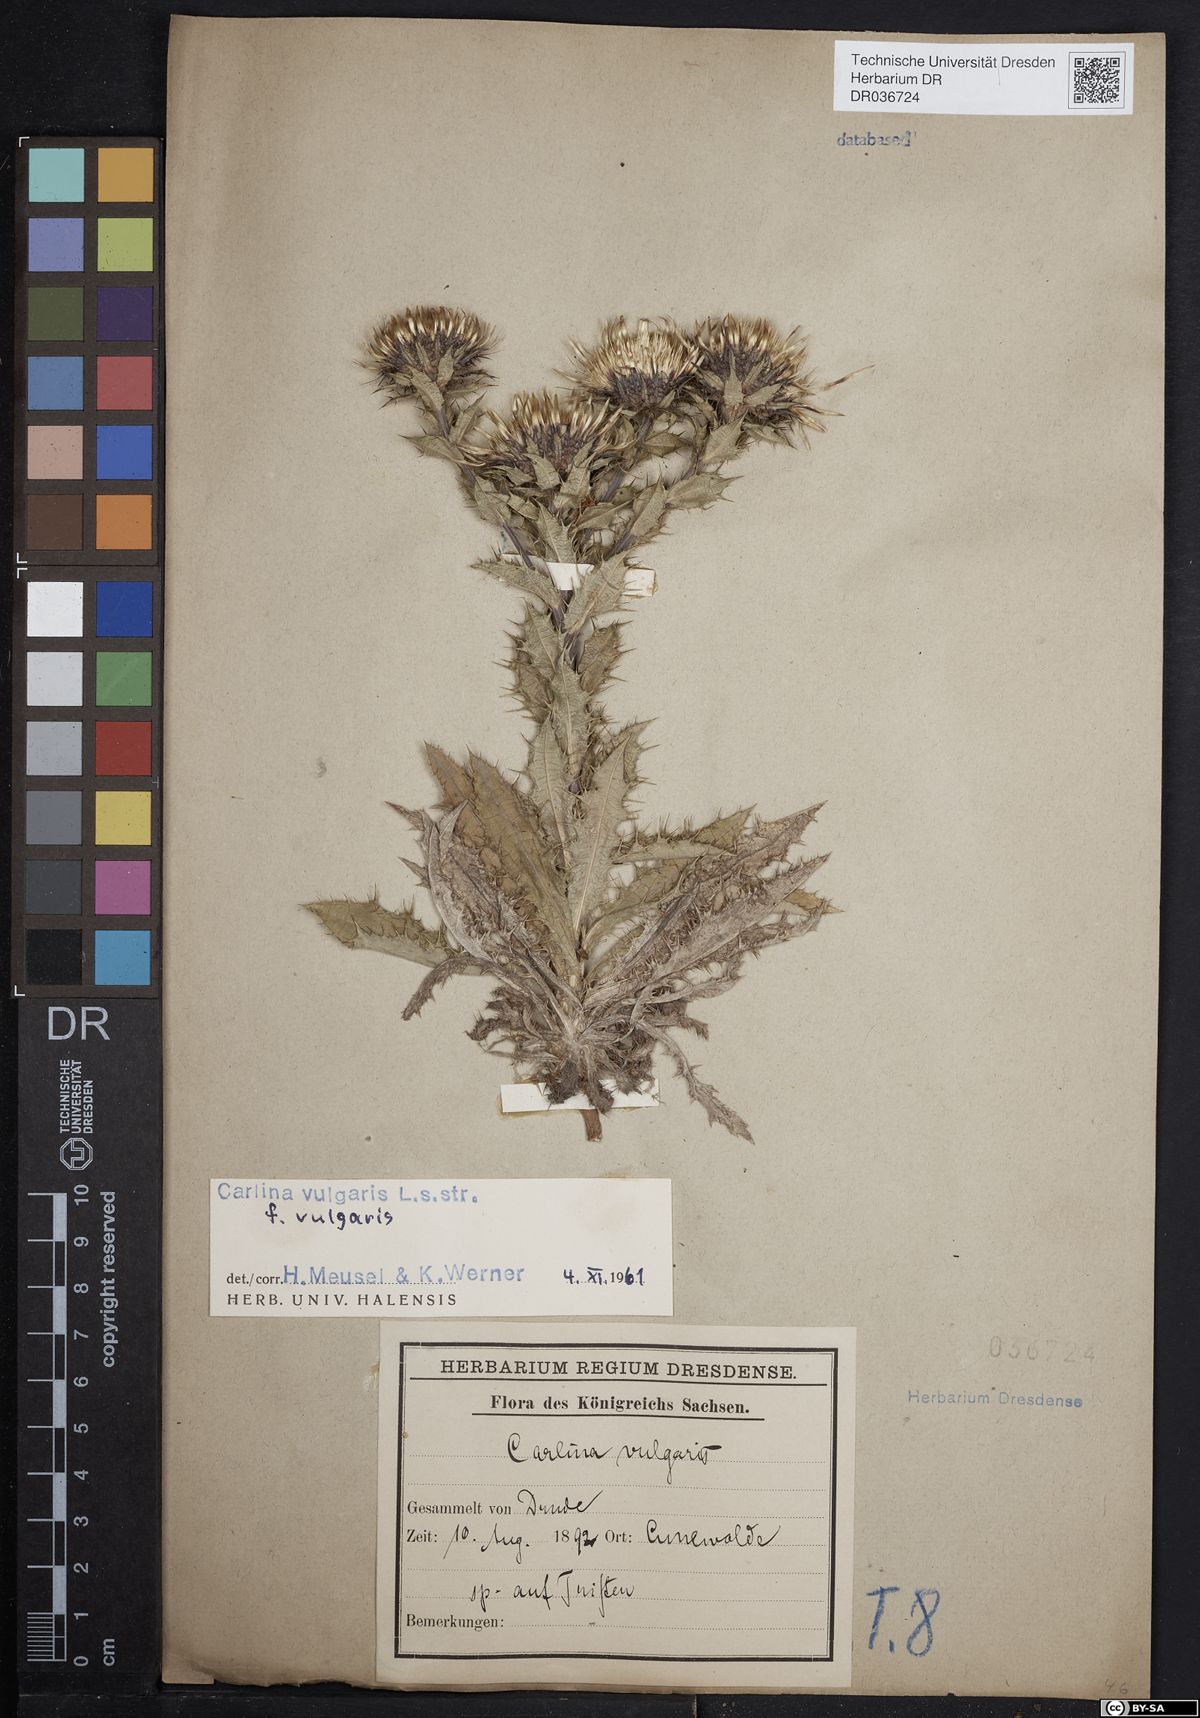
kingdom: Plantae
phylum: Tracheophyta
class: Magnoliopsida
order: Asterales
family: Asteraceae
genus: Carlina
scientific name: Carlina vulgaris
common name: Carline thistle
